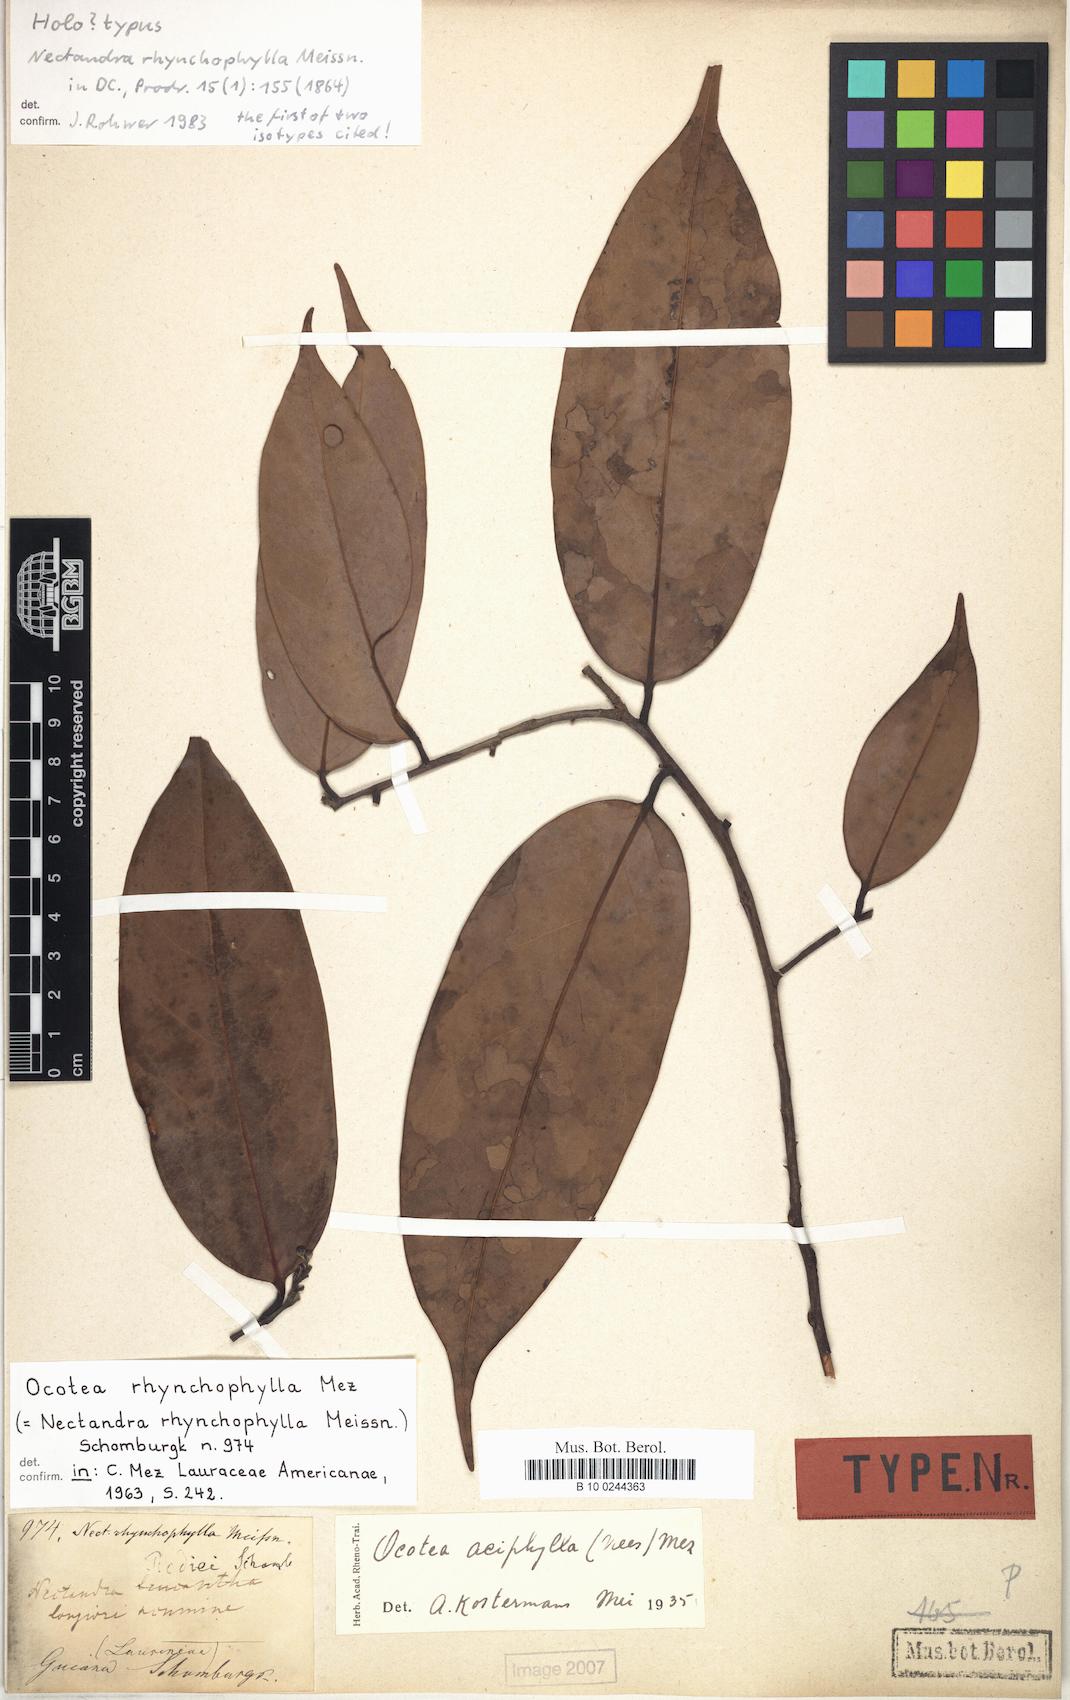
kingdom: Plantae
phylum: Tracheophyta
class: Magnoliopsida
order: Laurales
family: Lauraceae
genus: Ocotea
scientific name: Ocotea aciphylla
